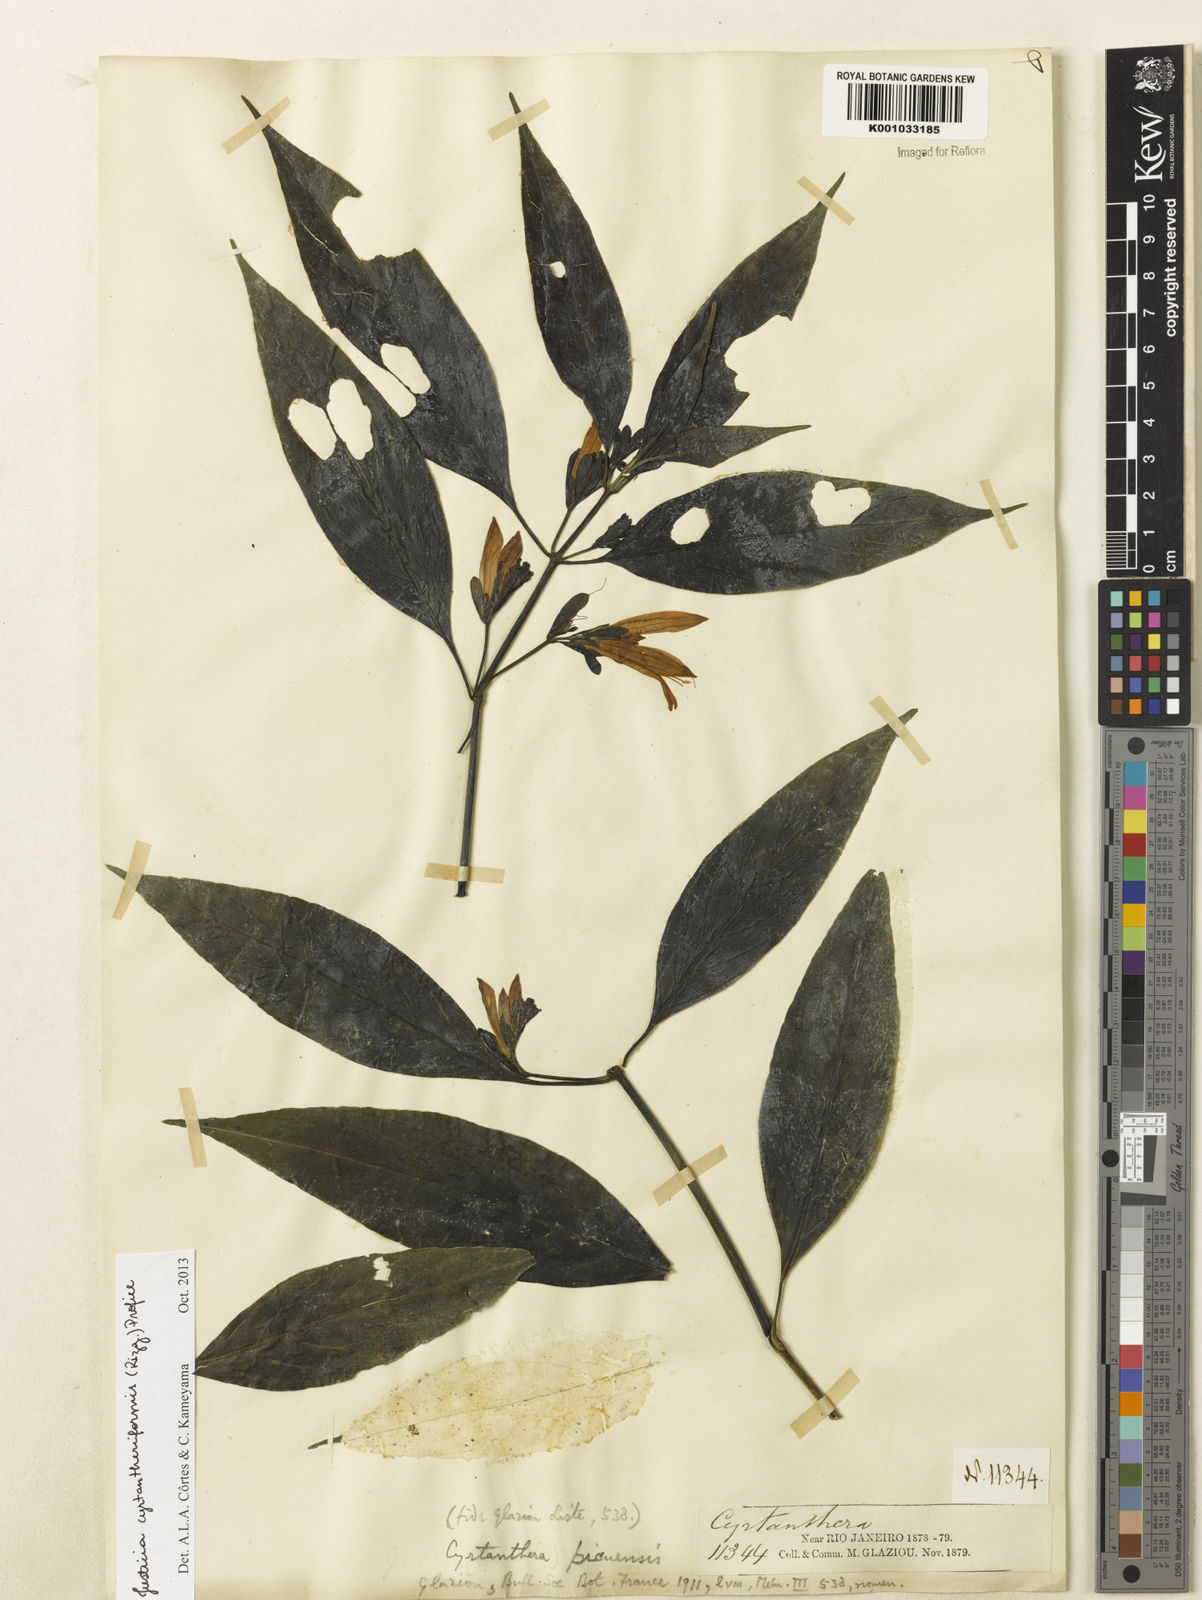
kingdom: Plantae
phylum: Tracheophyta
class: Magnoliopsida
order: Lamiales
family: Acanthaceae
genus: Justicia
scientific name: Justicia cyrtantheriformis
